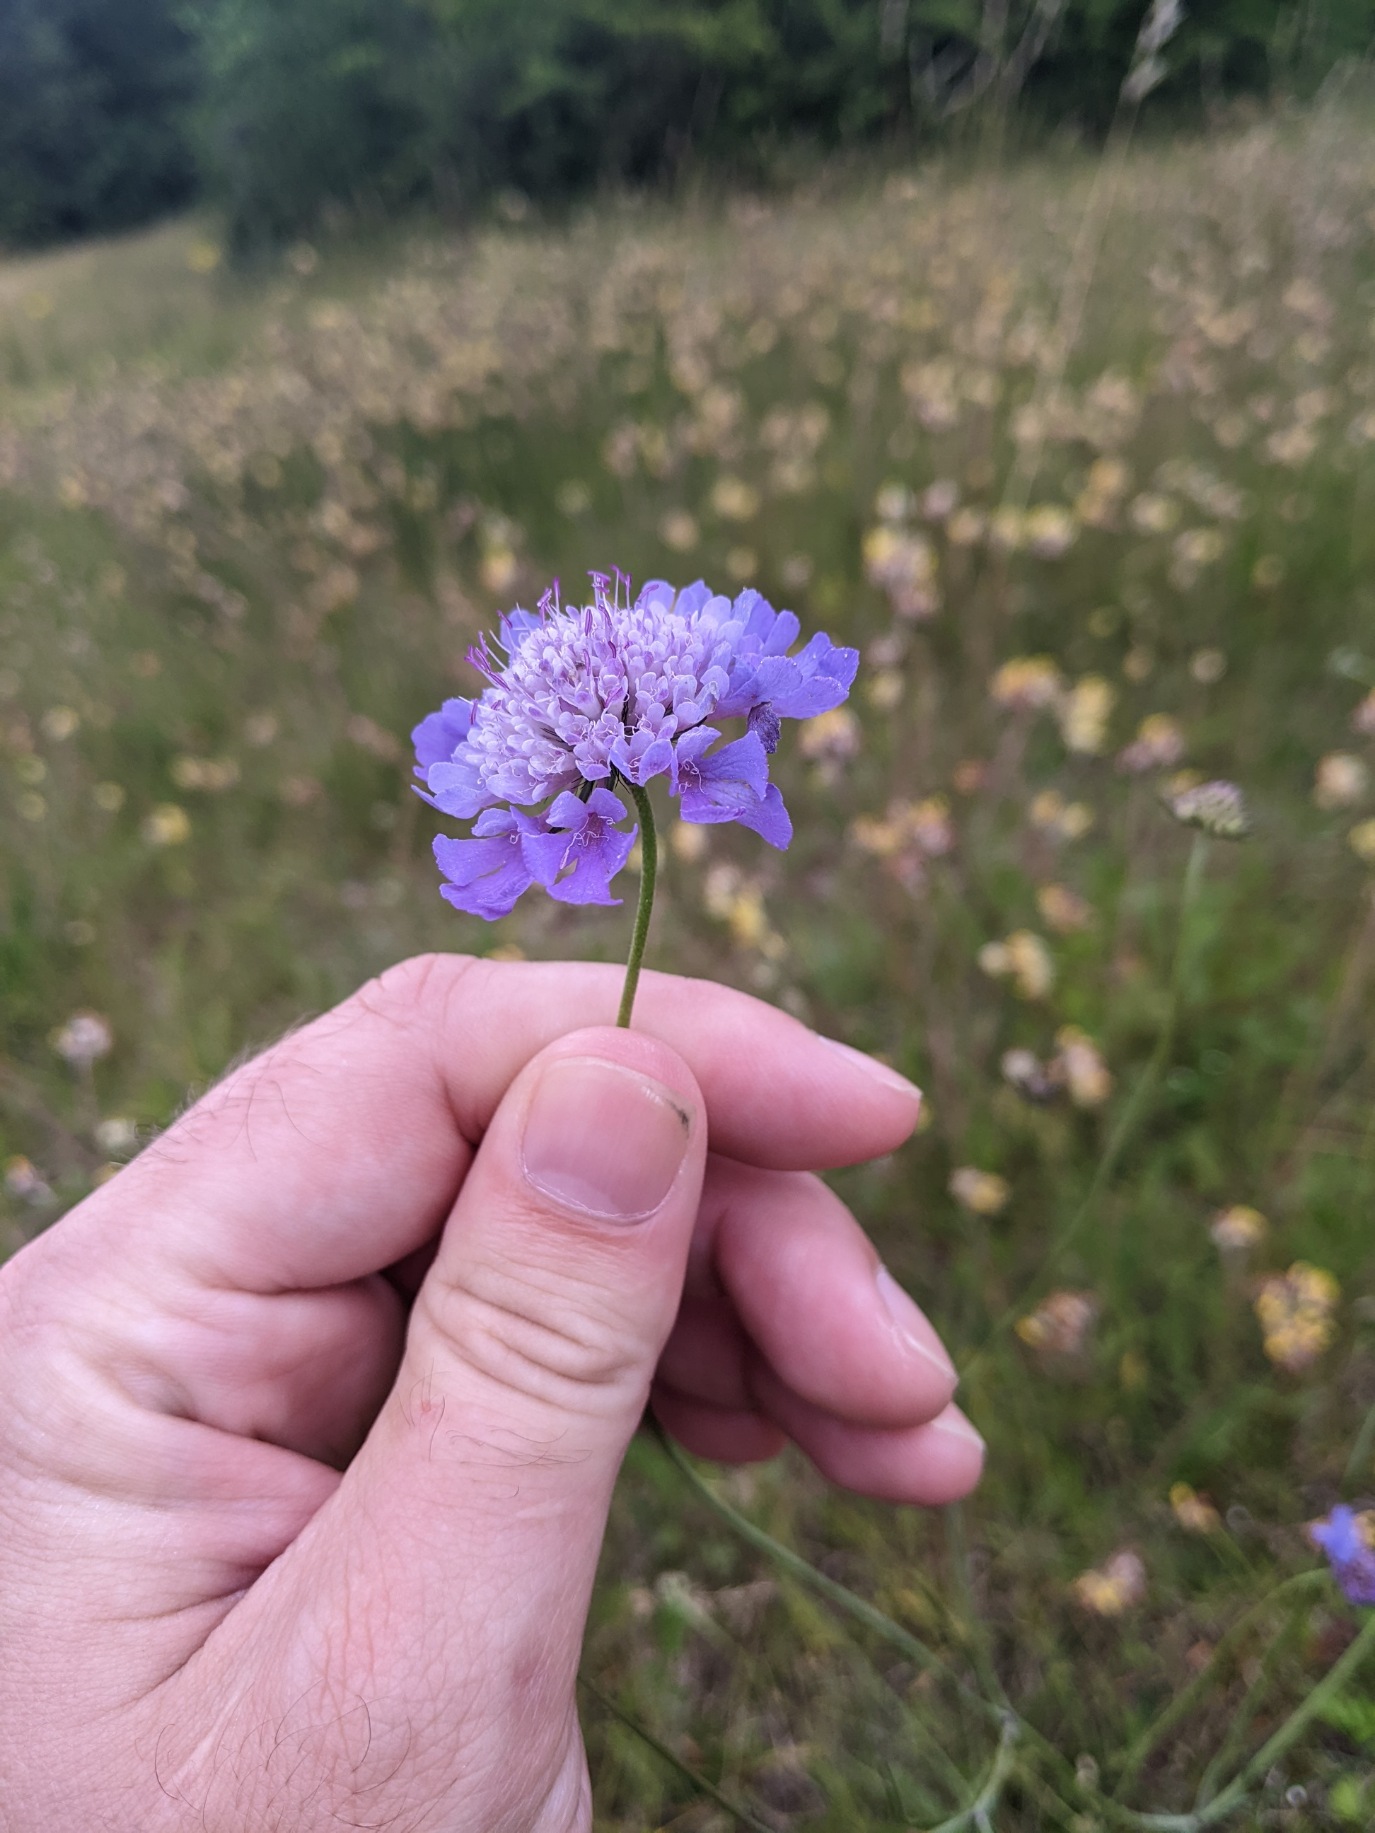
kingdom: Plantae
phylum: Tracheophyta
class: Magnoliopsida
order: Dipsacales
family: Caprifoliaceae
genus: Scabiosa
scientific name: Scabiosa columbaria
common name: Due-skabiose
